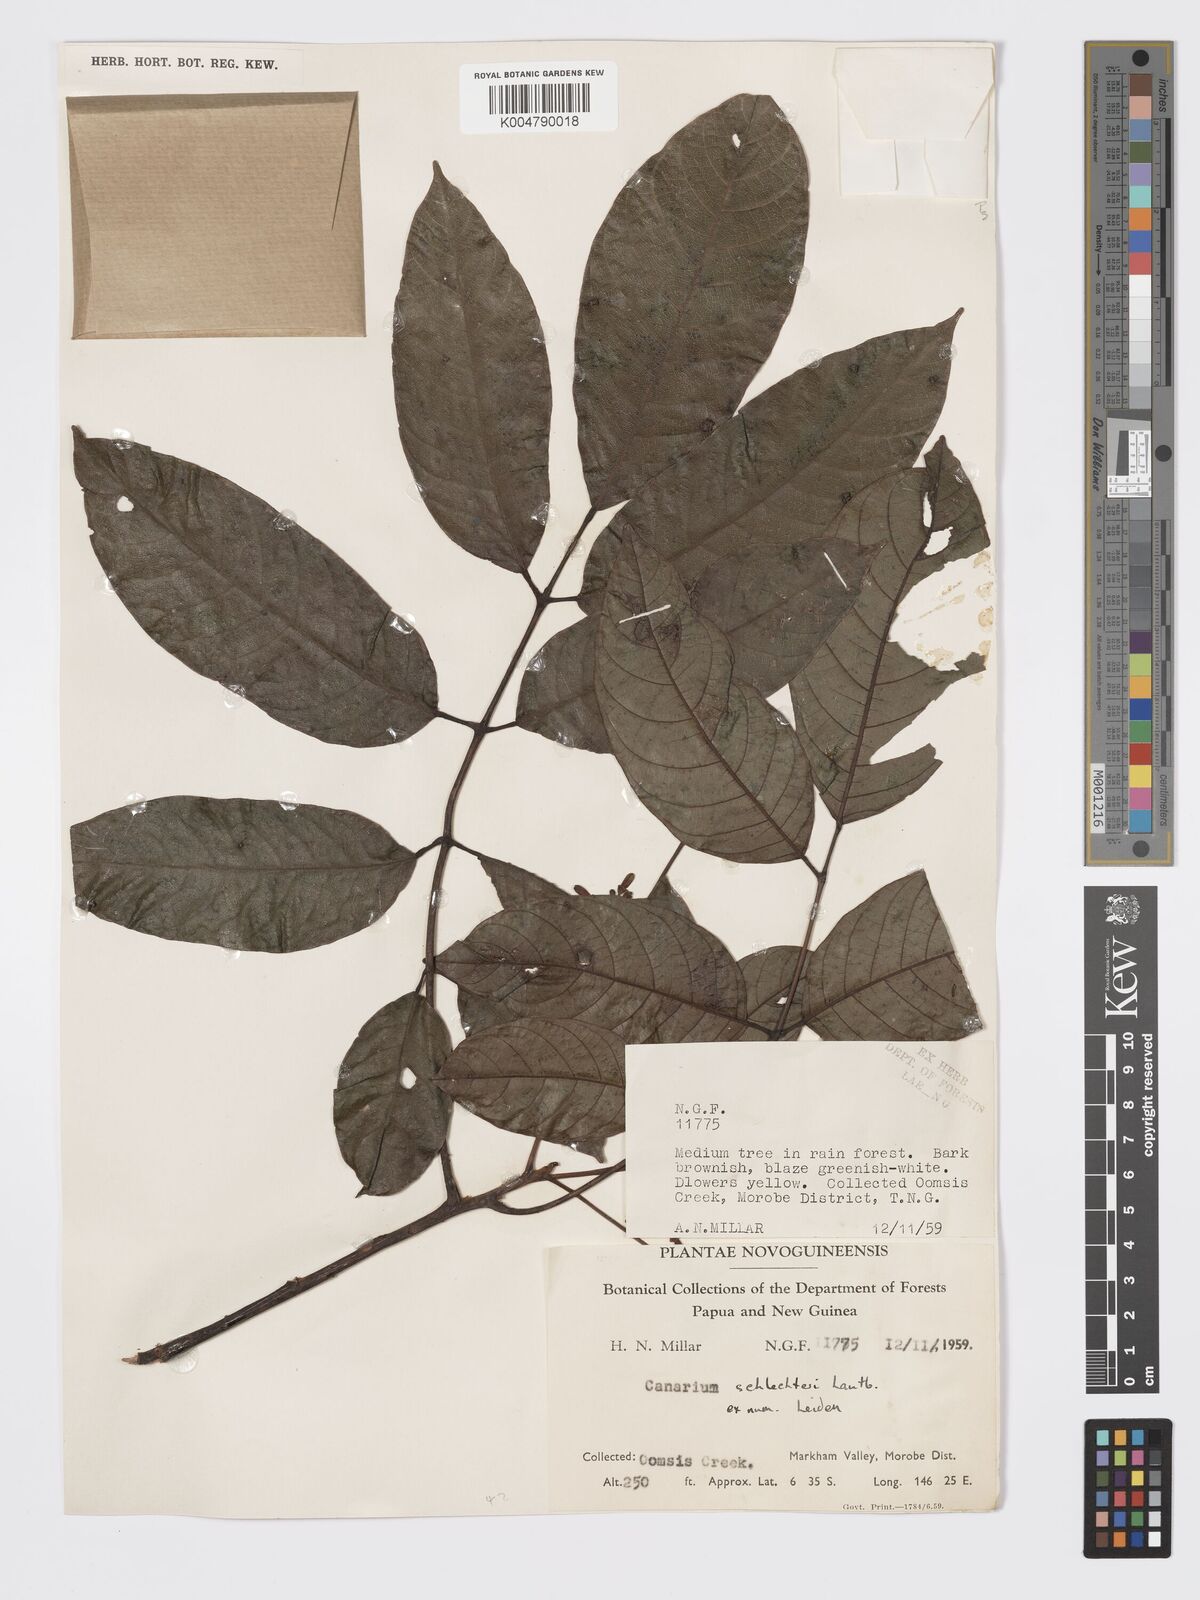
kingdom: Plantae
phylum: Tracheophyta
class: Magnoliopsida
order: Sapindales
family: Burseraceae
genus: Canarium
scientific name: Canarium schlechteri
